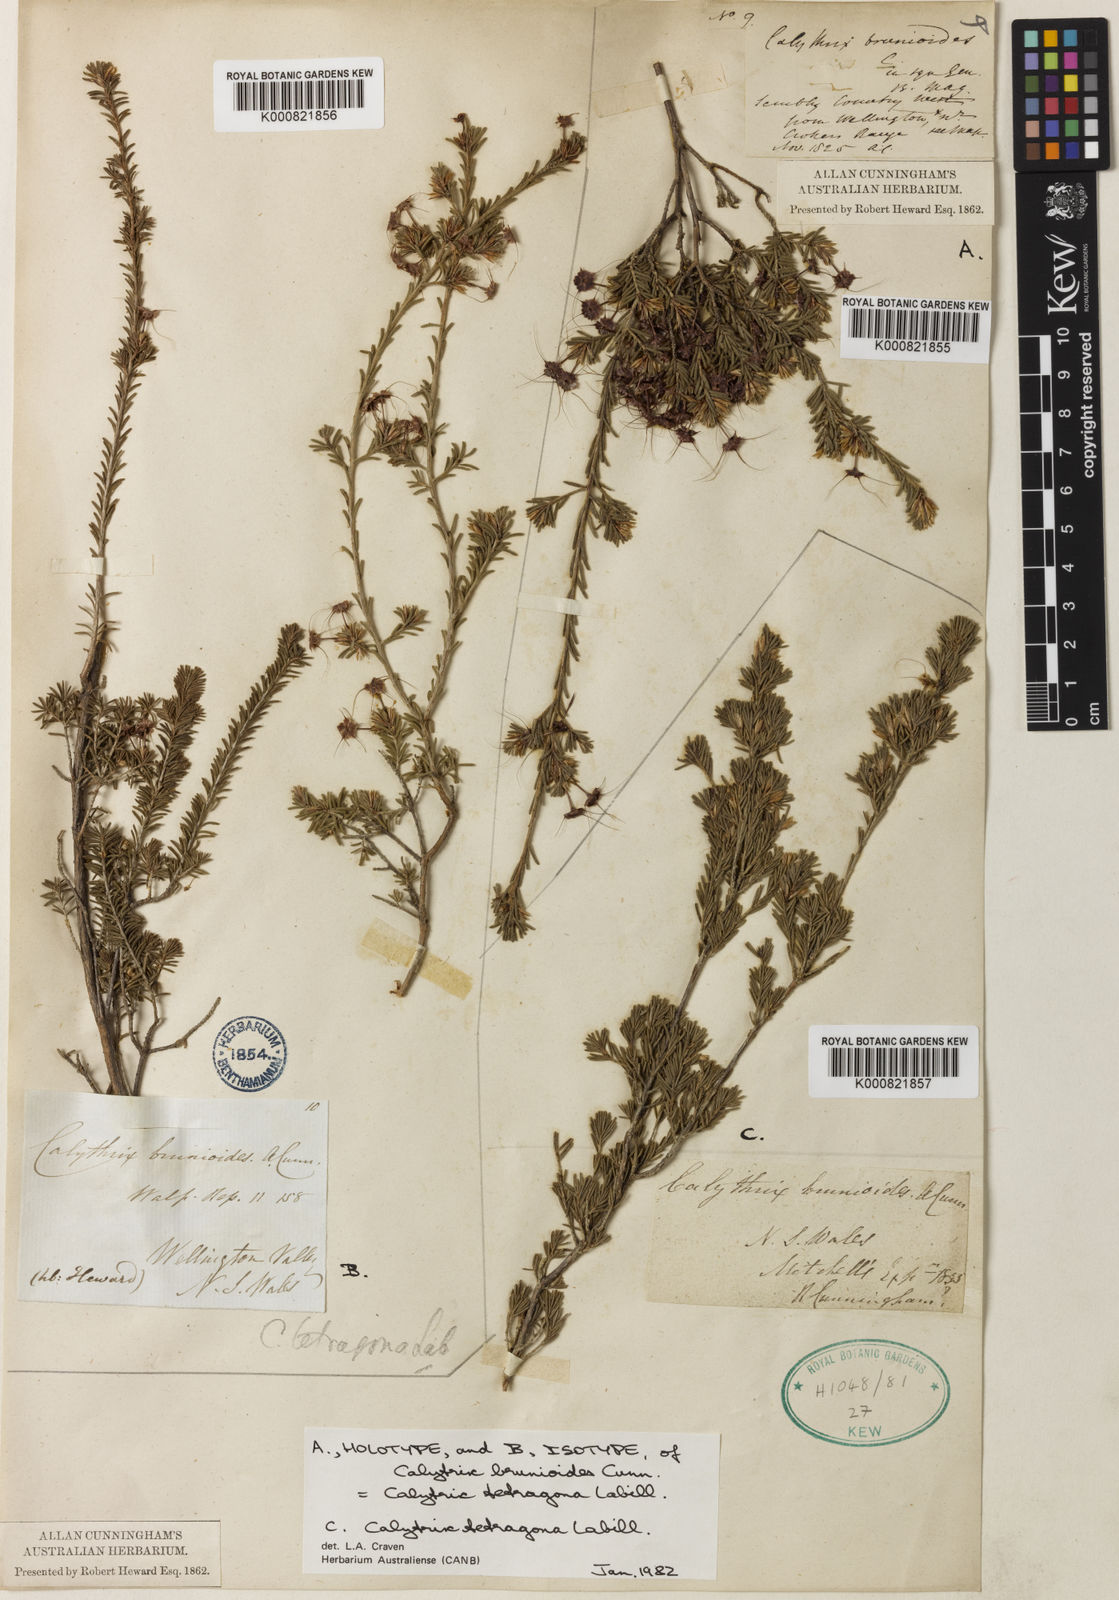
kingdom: Plantae
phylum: Tracheophyta
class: Magnoliopsida
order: Myrtales
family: Myrtaceae
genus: Calytrix
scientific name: Calytrix tetragona
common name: Common fringe myrtle
